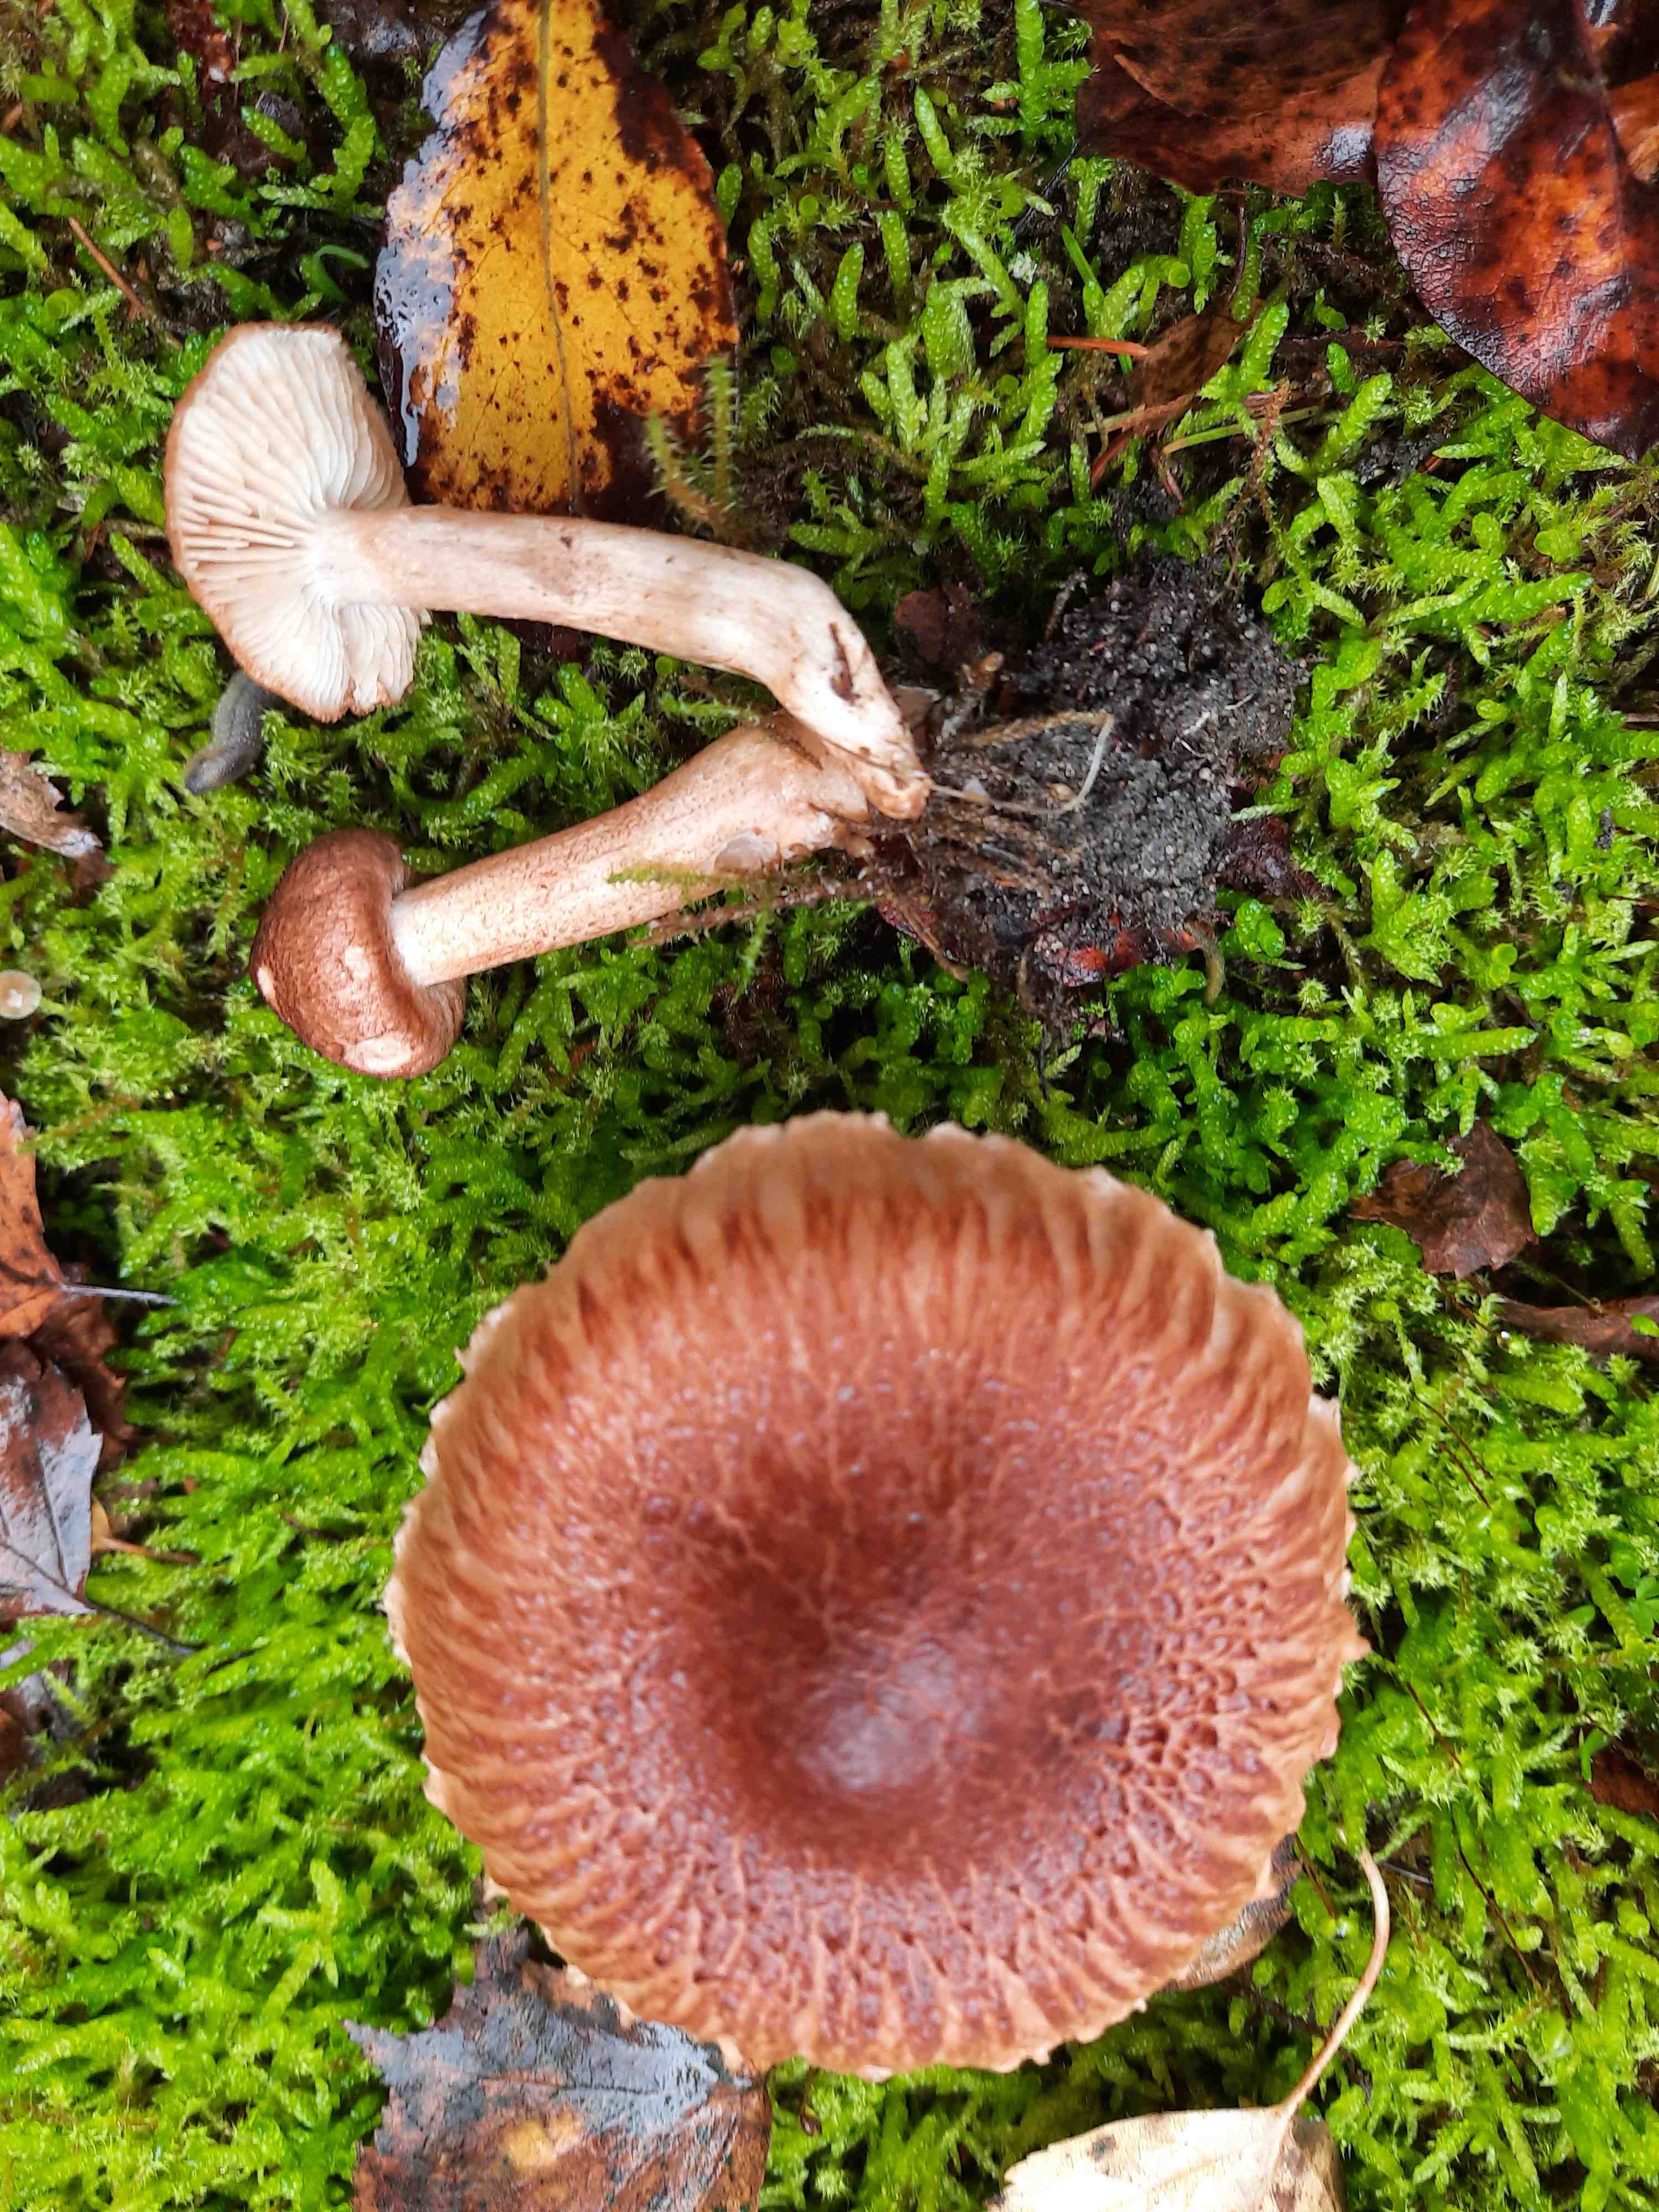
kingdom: Fungi
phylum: Basidiomycota
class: Agaricomycetes
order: Agaricales
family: Tricholomataceae
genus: Tricholoma
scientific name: Tricholoma vaccinum
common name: ko-ridderhat
